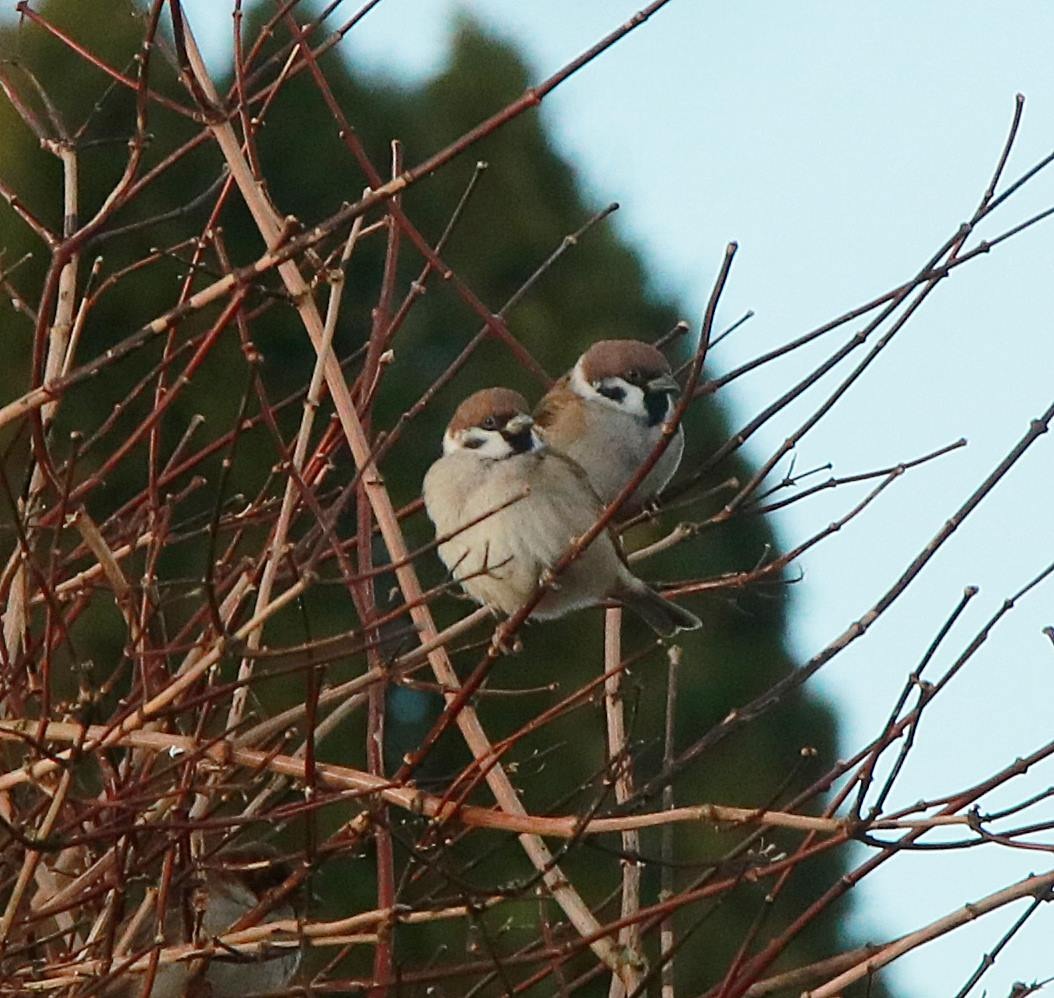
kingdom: Animalia
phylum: Chordata
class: Aves
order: Passeriformes
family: Passeridae
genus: Passer
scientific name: Passer montanus
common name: Skovspurv
